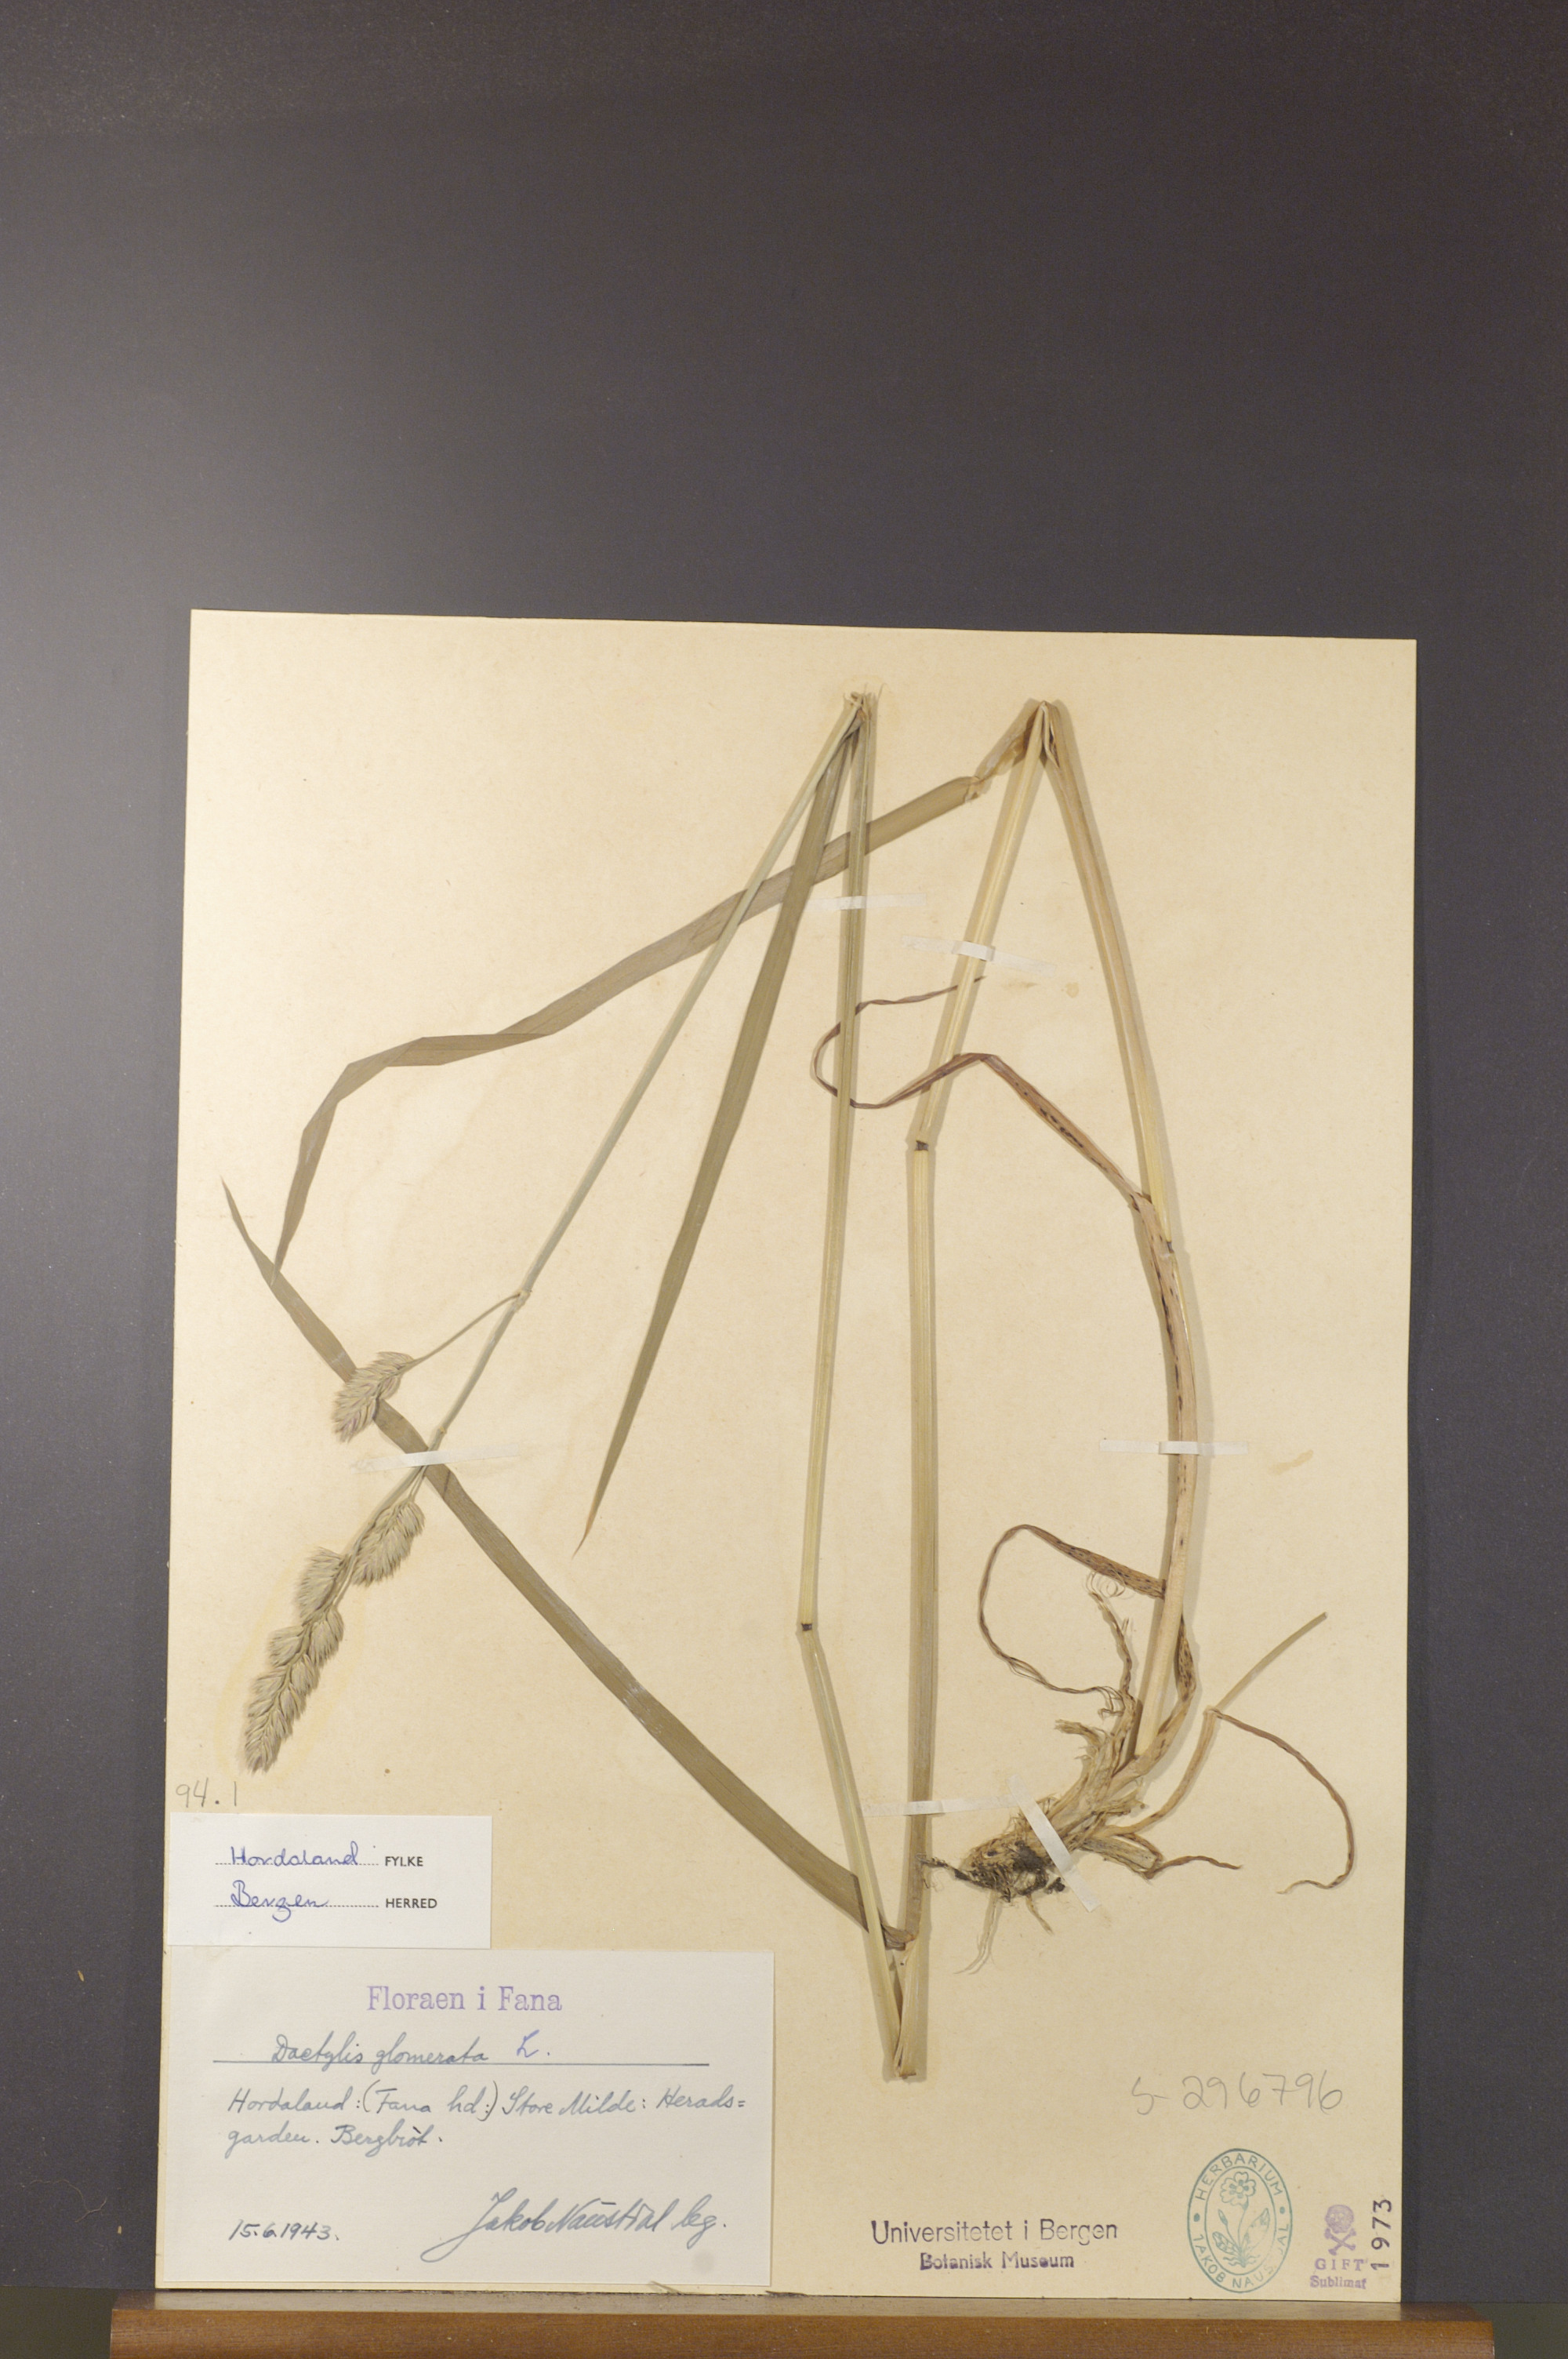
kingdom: Plantae
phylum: Tracheophyta
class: Liliopsida
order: Poales
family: Poaceae
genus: Dactylis
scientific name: Dactylis glomerata
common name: Orchardgrass
